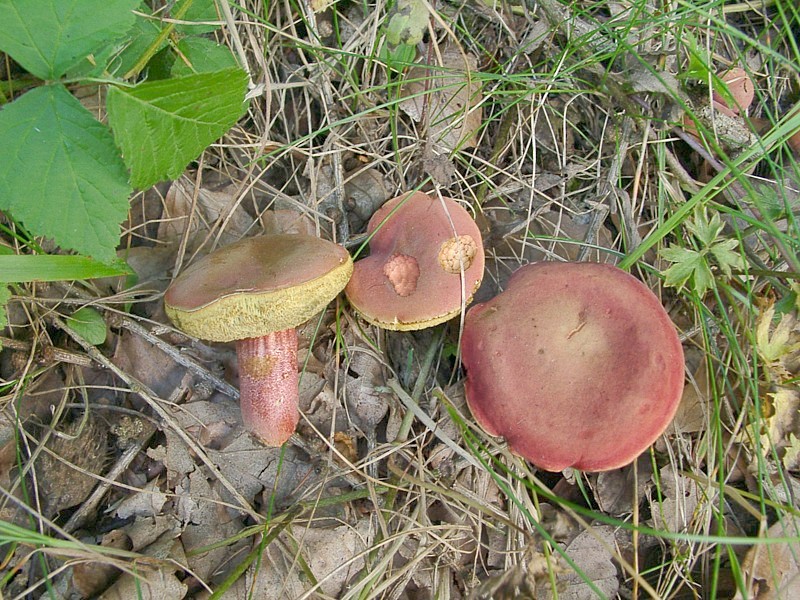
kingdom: Fungi
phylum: Basidiomycota
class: Agaricomycetes
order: Boletales
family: Boletaceae
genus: Hortiboletus
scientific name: Hortiboletus rubellus
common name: Ruby bolete
